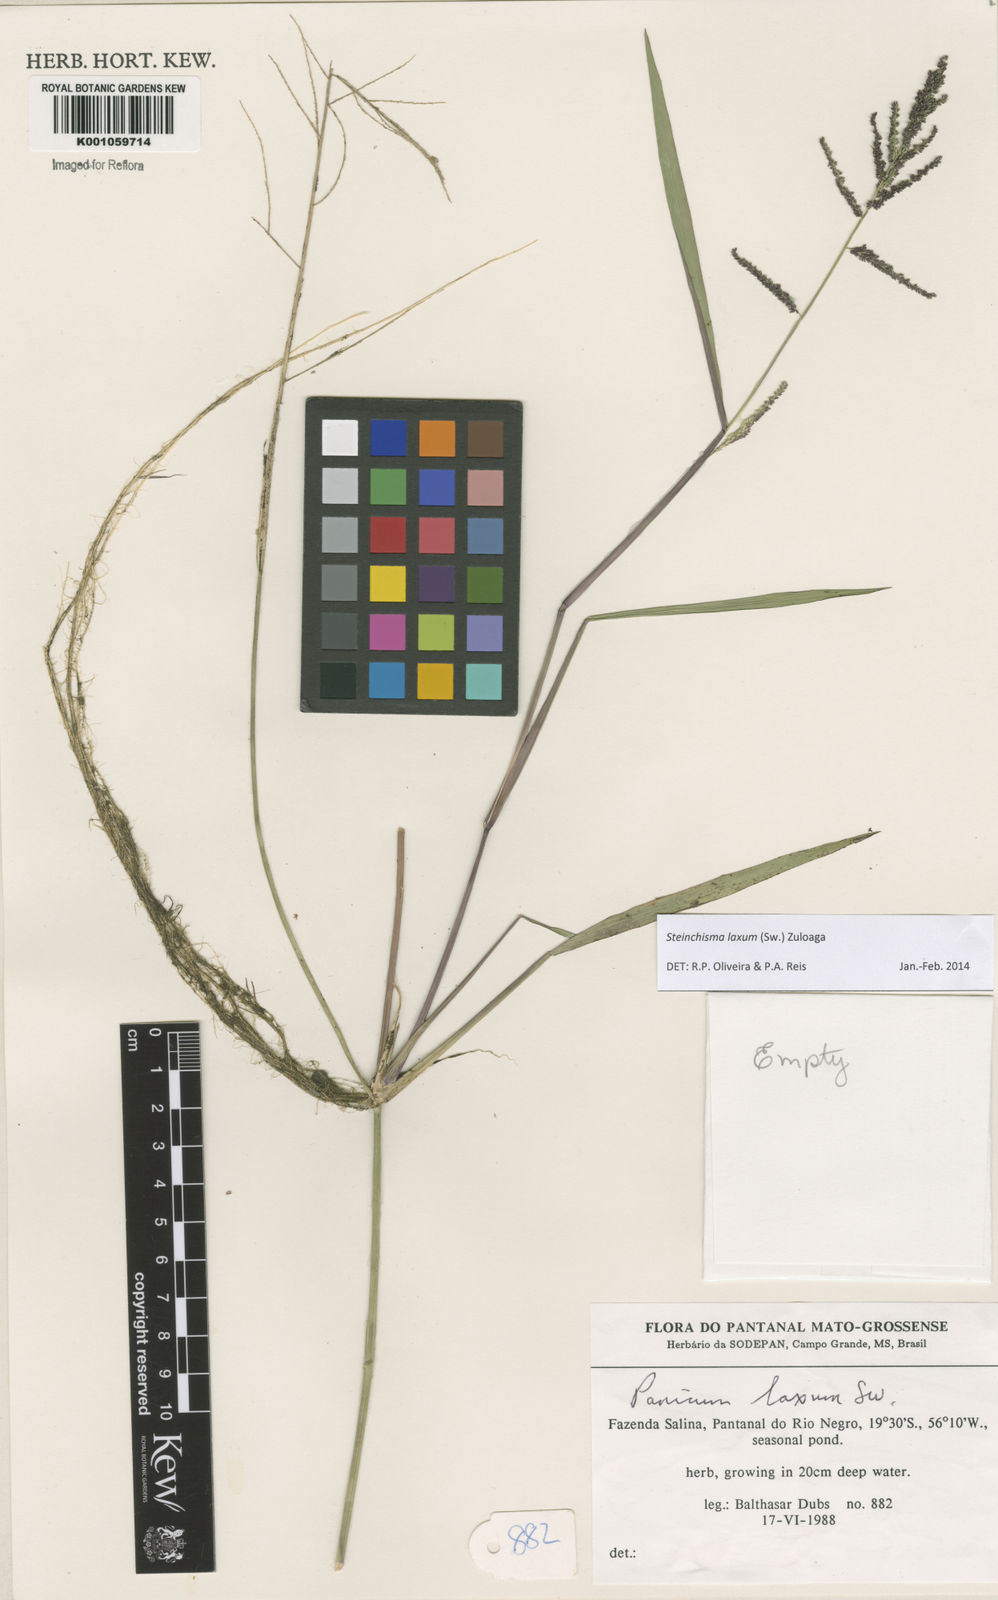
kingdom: Plantae
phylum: Tracheophyta
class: Liliopsida
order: Poales
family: Poaceae
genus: Steinchisma
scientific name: Steinchisma laxum
